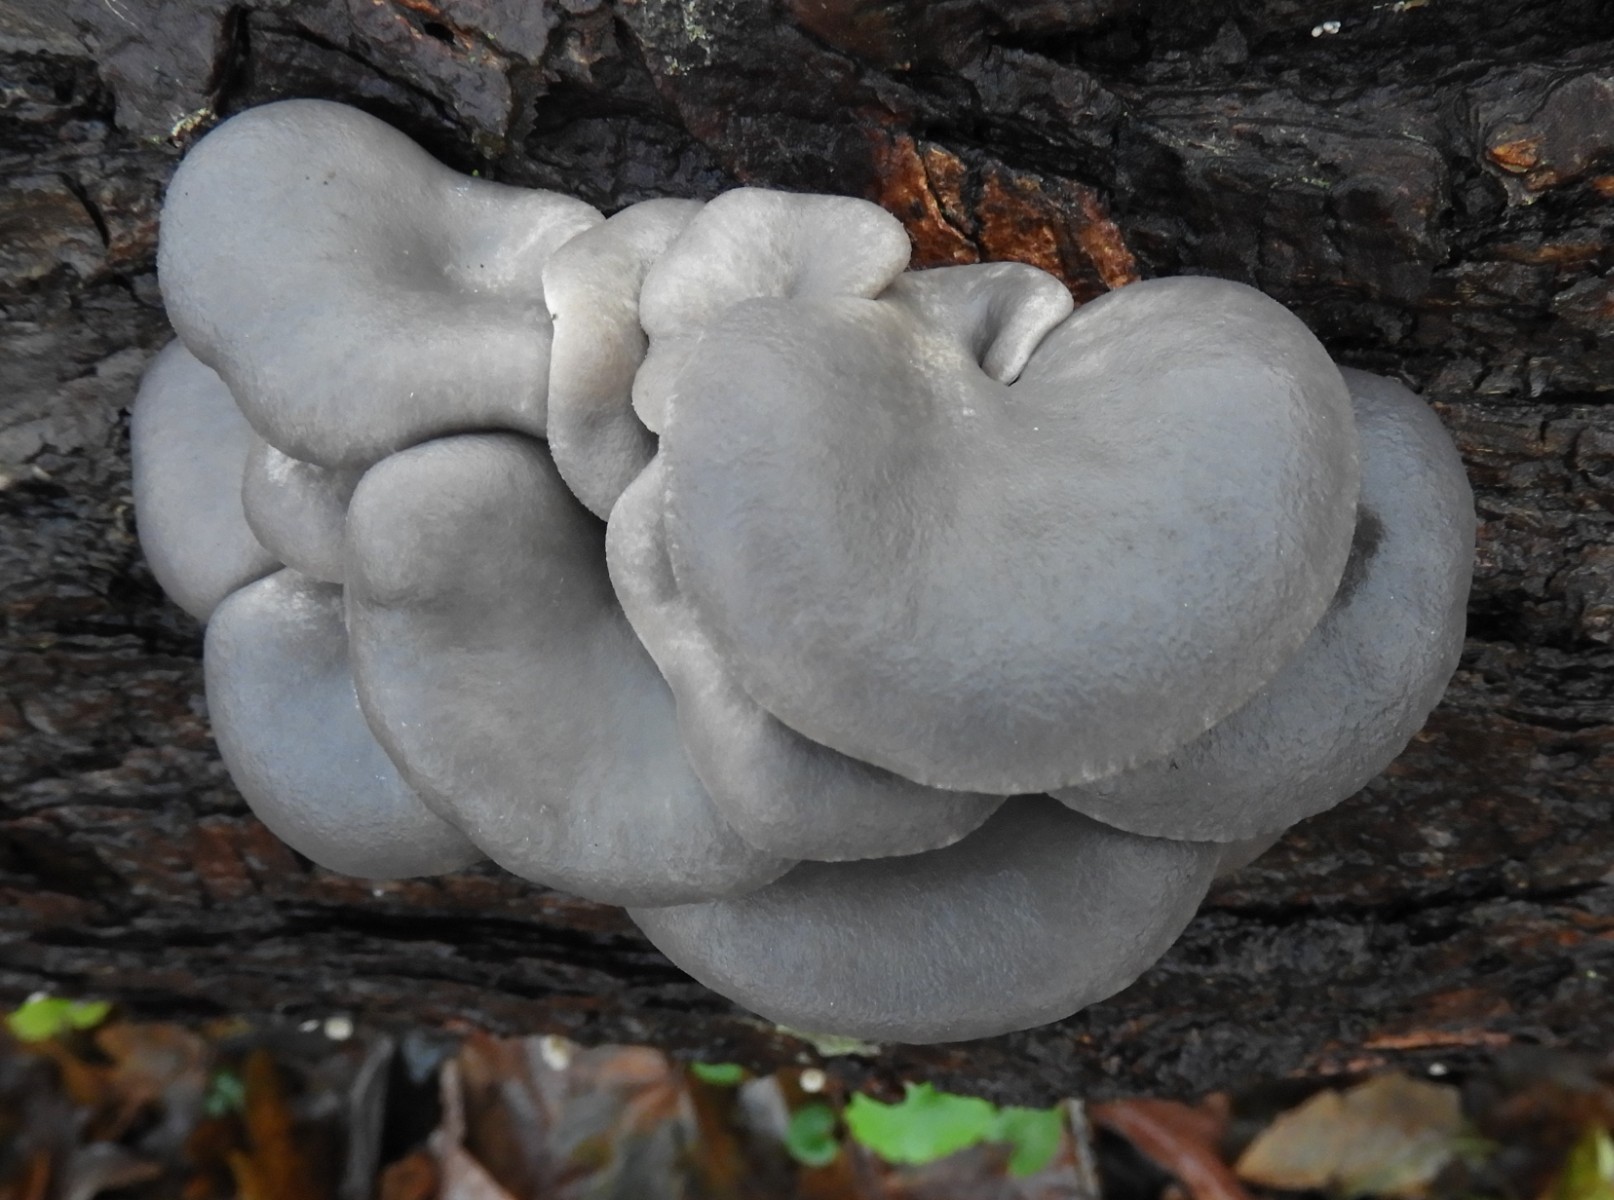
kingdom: Fungi
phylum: Basidiomycota
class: Agaricomycetes
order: Agaricales
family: Pleurotaceae
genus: Pleurotus
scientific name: Pleurotus ostreatus
